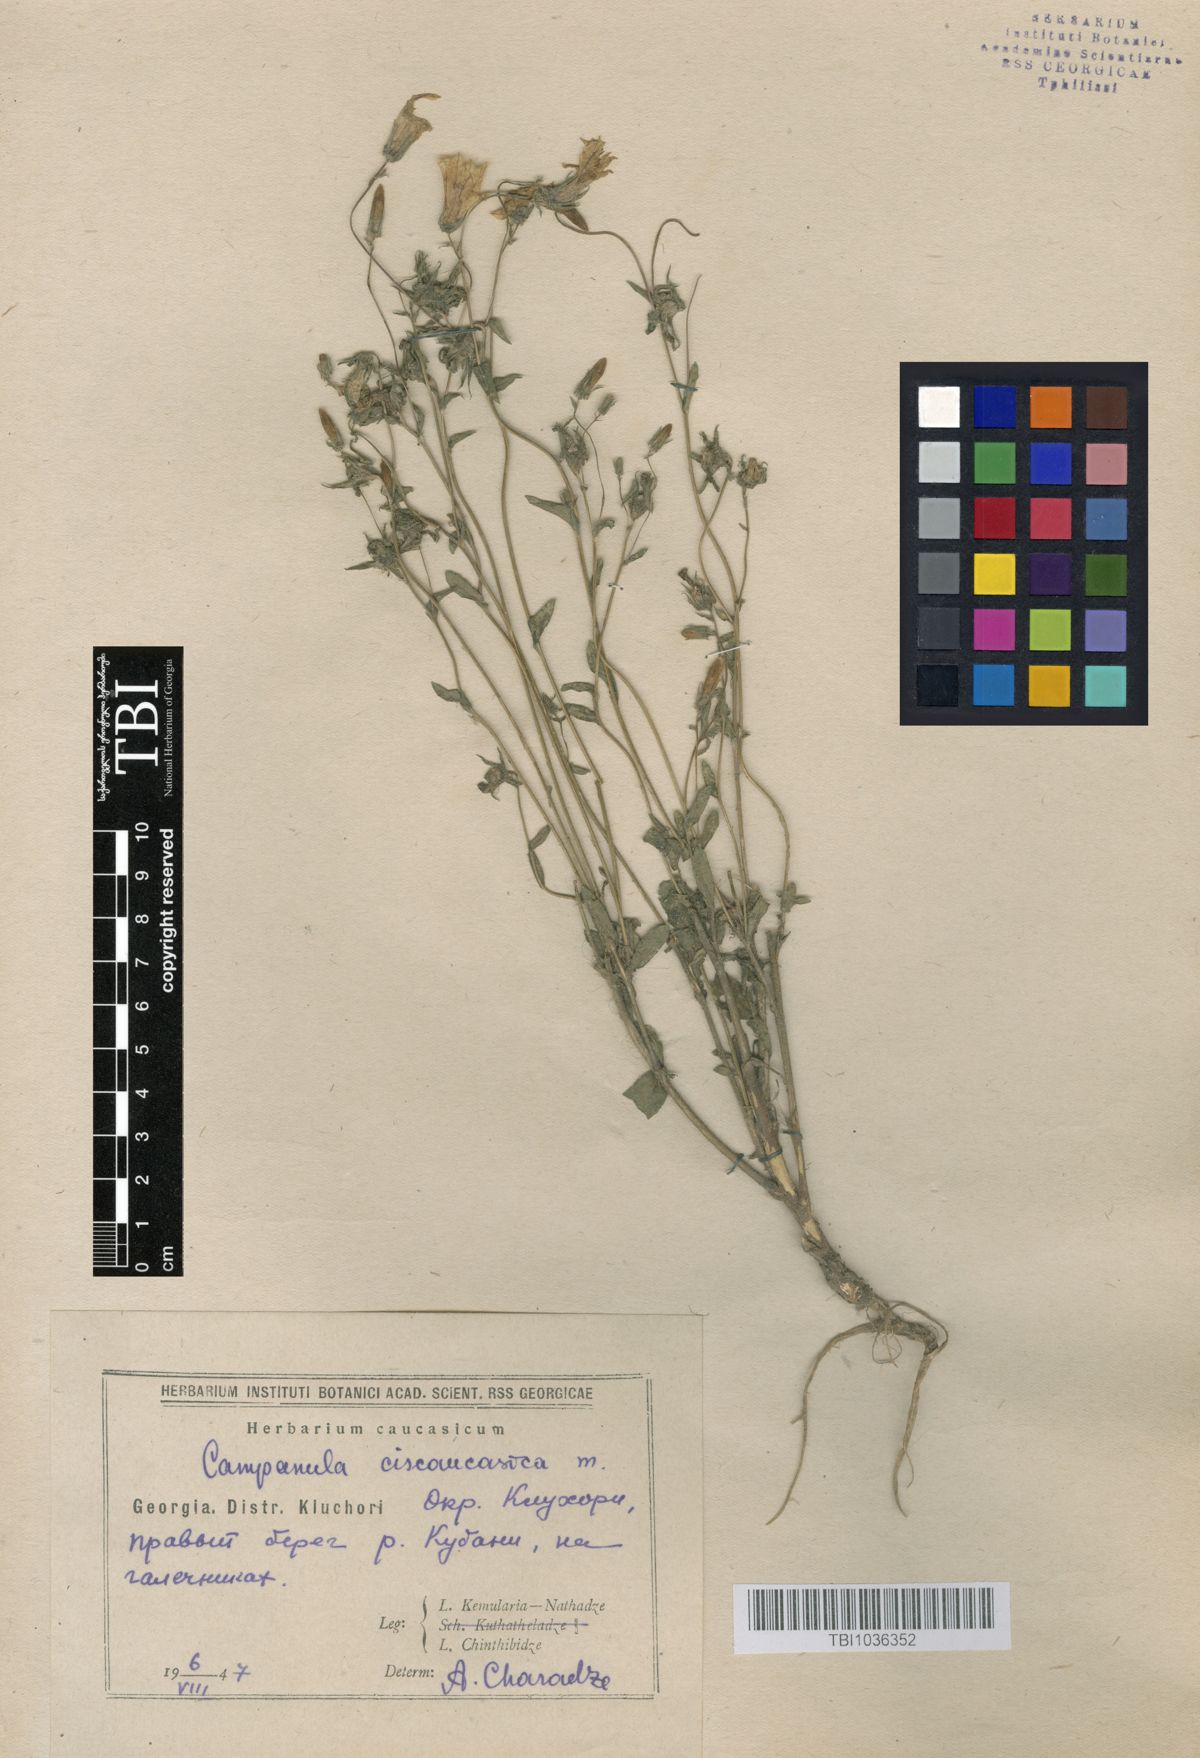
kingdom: Plantae
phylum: Tracheophyta
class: Magnoliopsida
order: Asterales
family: Campanulaceae
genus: Campanula
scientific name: Campanula sibirica
